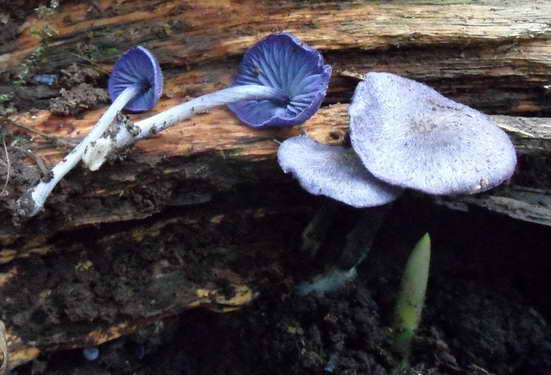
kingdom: Fungi
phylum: Basidiomycota
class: Agaricomycetes
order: Agaricales
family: Entolomataceae
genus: Entoloma
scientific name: Entoloma euchroum
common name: smuk rødblad
